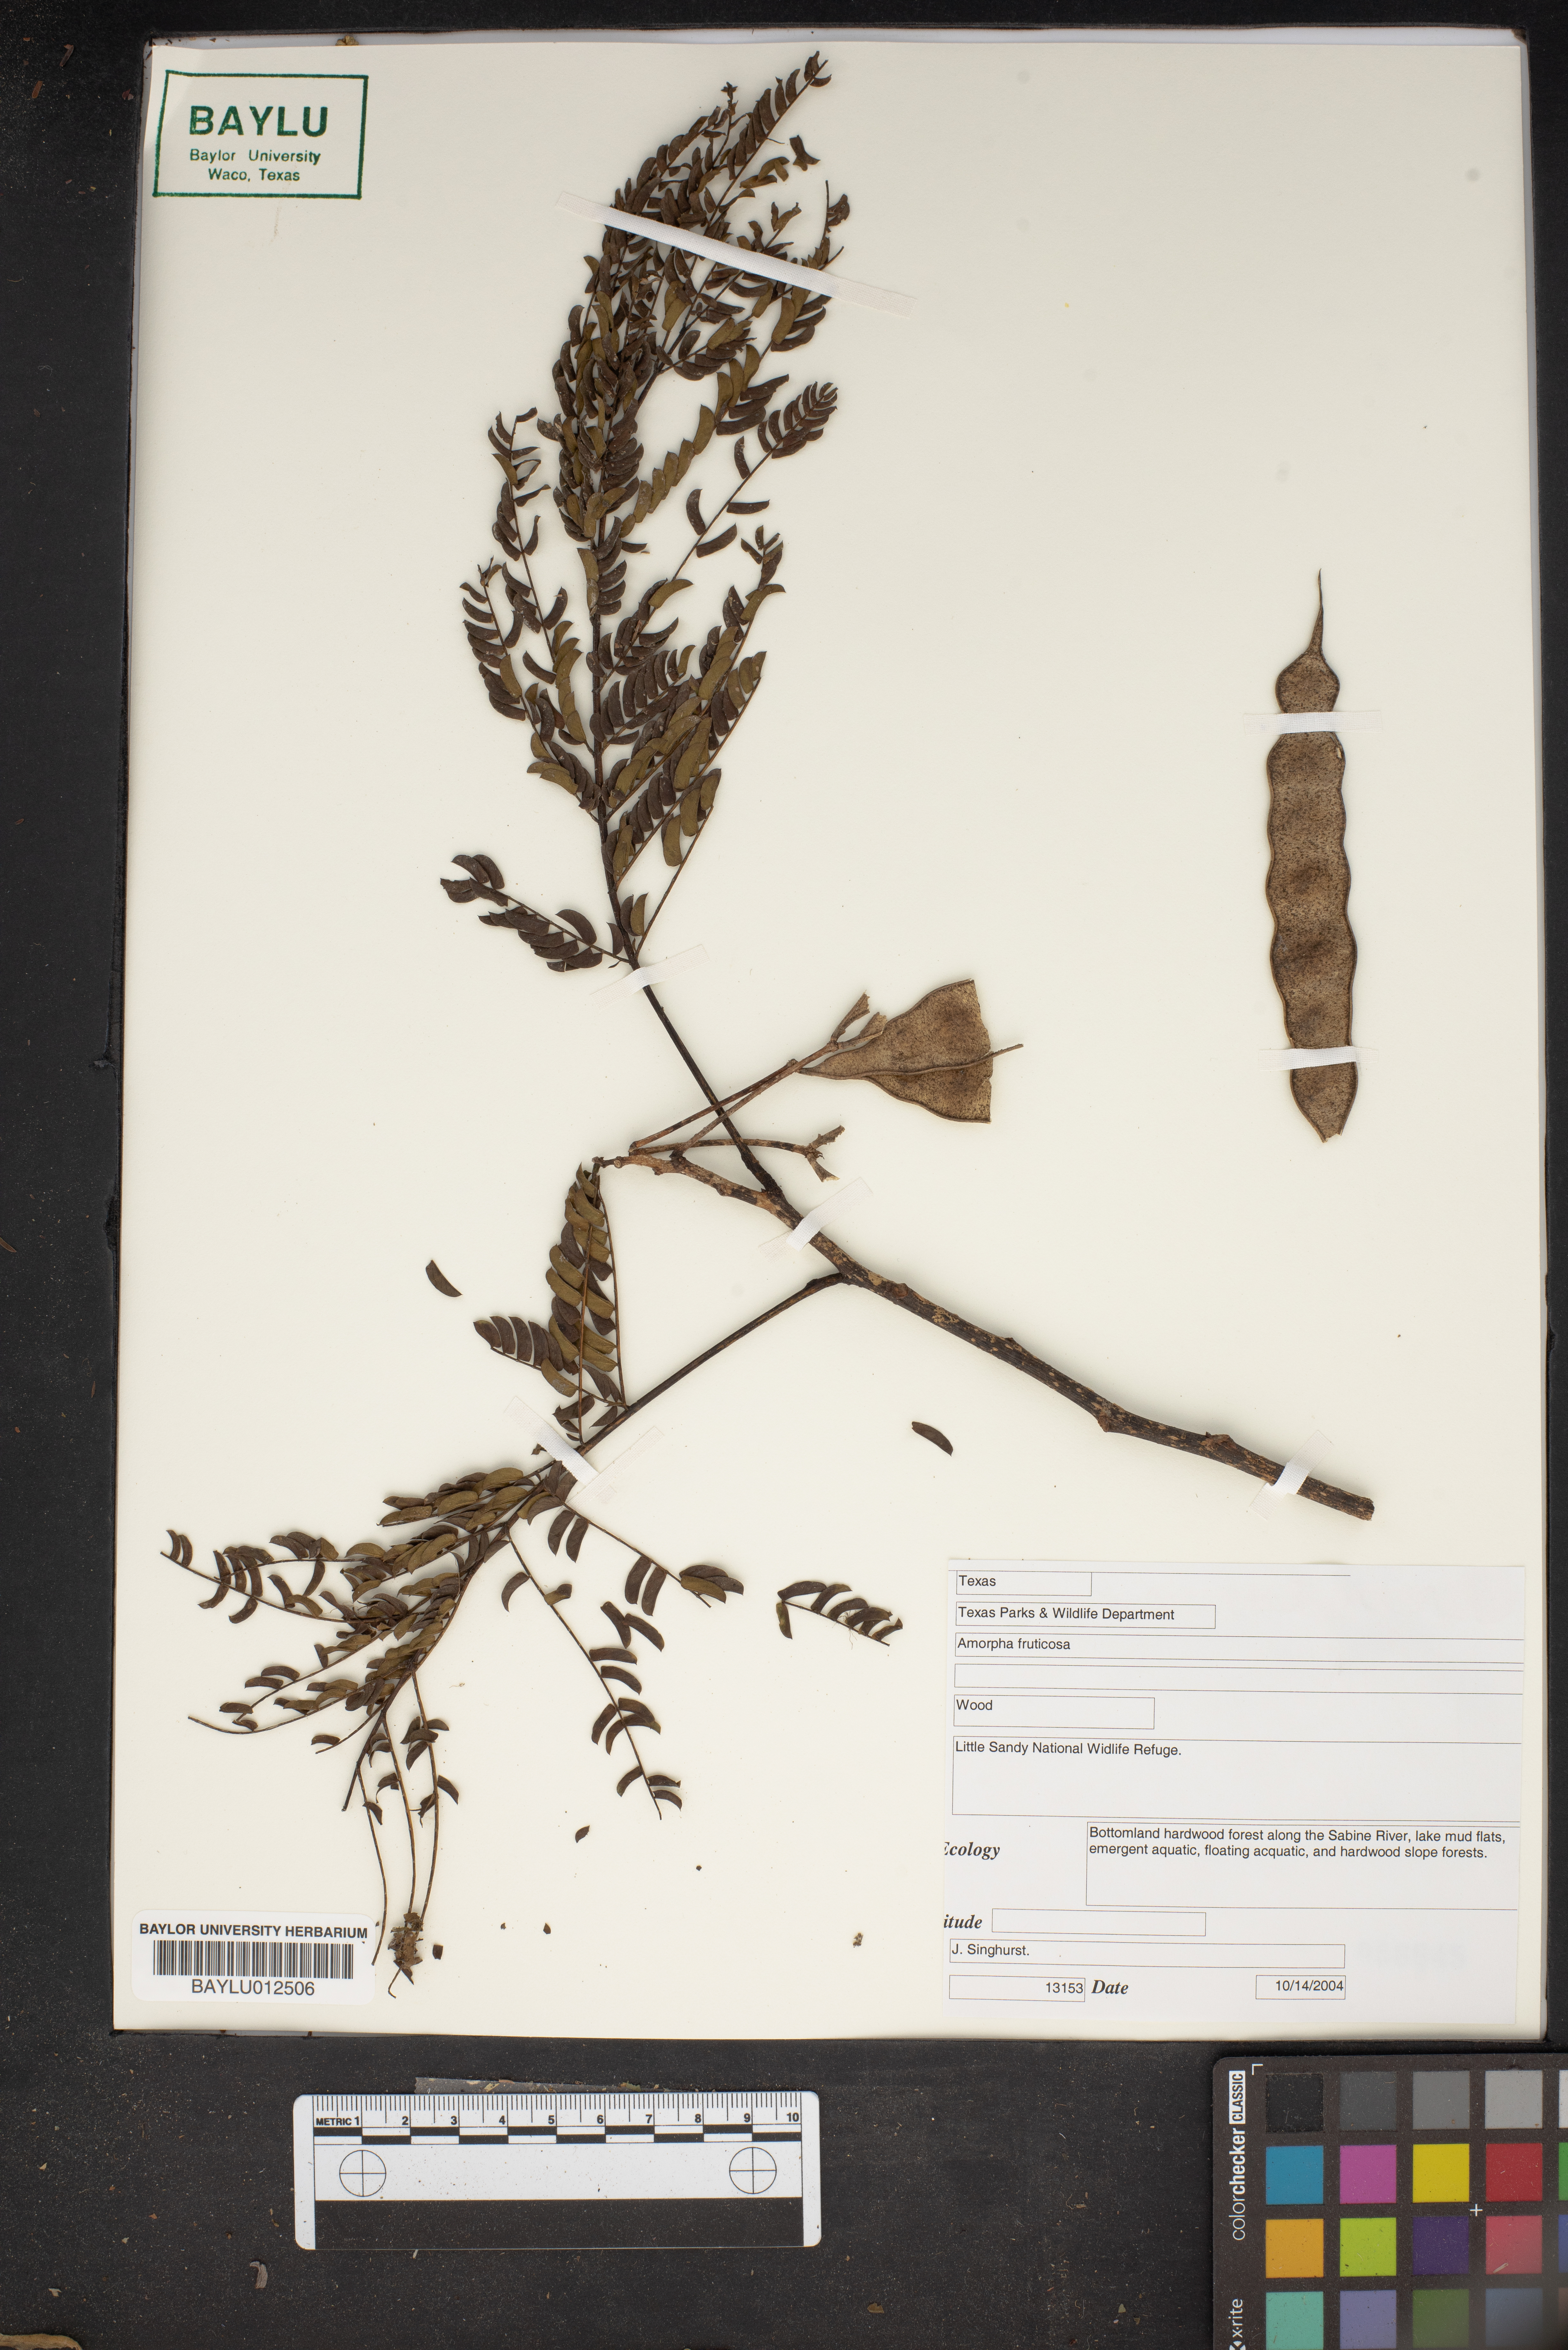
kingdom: Plantae
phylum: Tracheophyta
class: Magnoliopsida
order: Fabales
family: Fabaceae
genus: Amorpha
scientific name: Amorpha fruticosa
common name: False indigo
